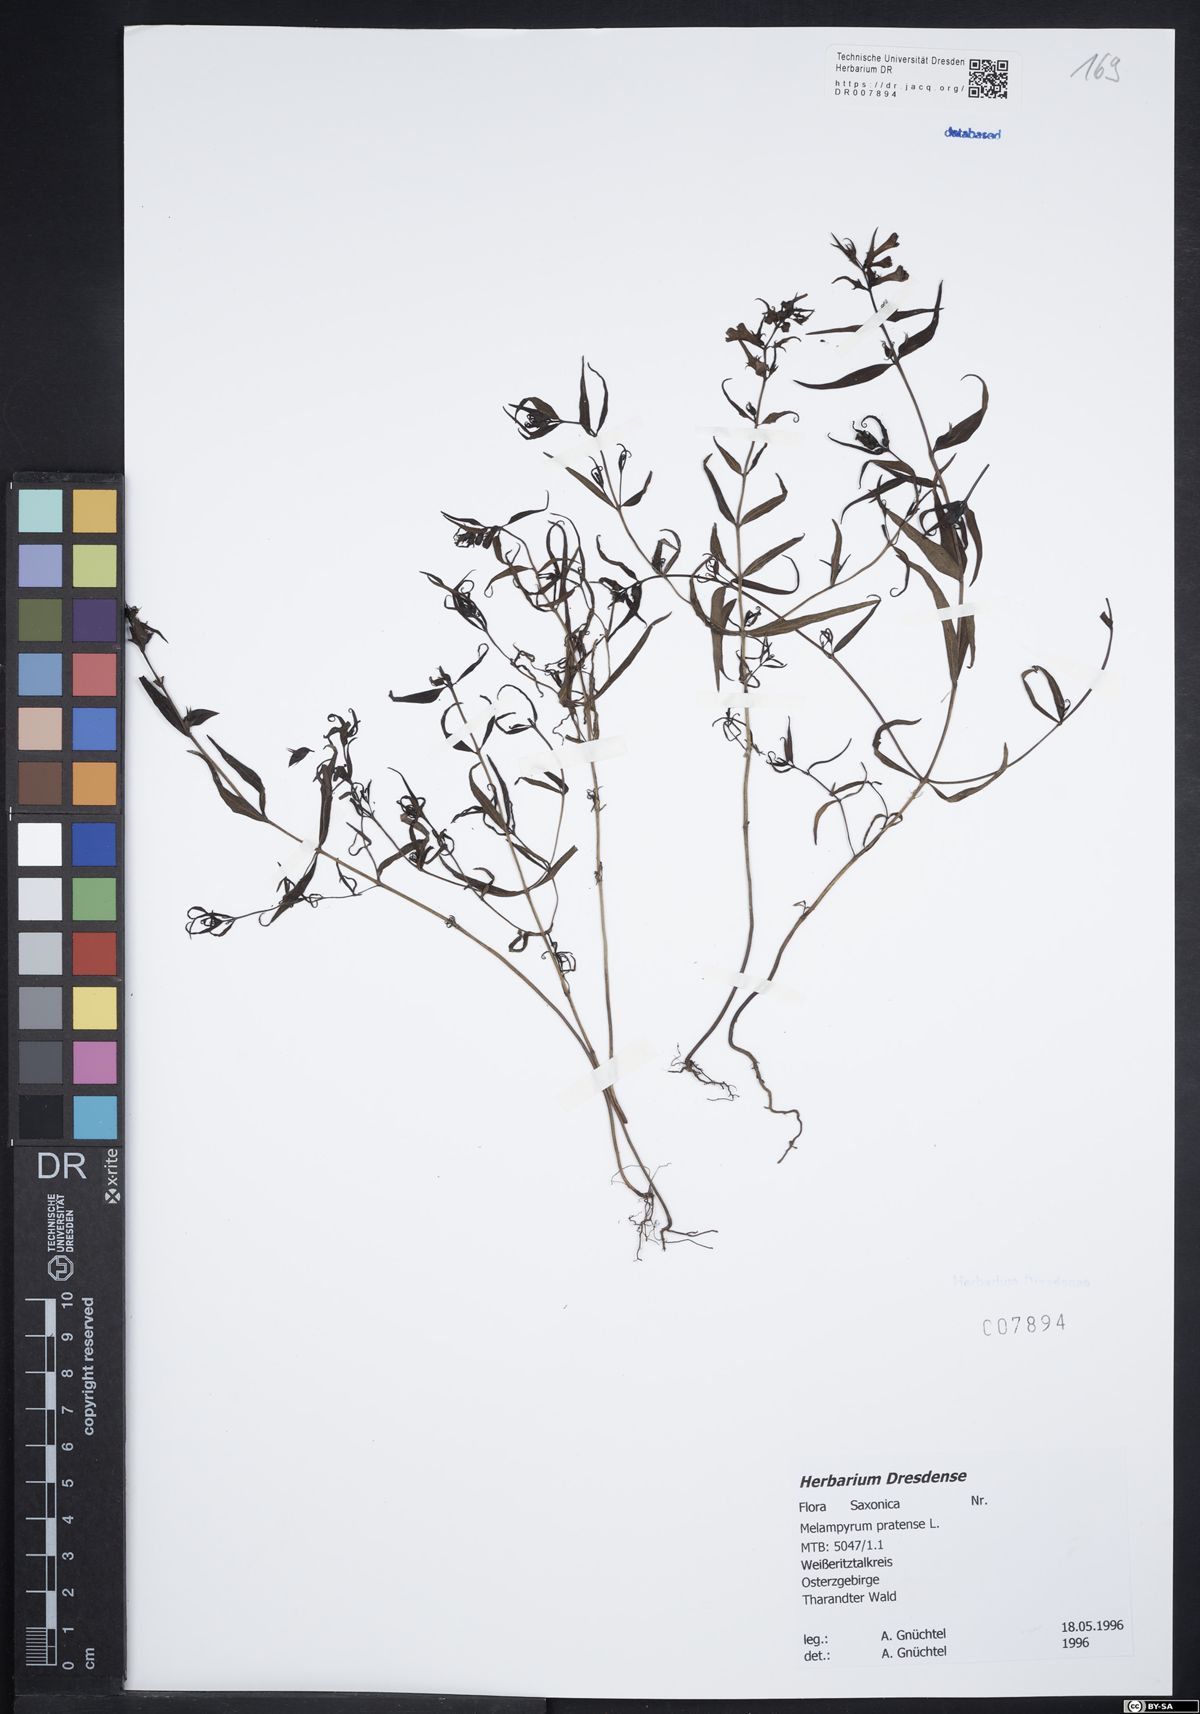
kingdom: Plantae
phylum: Tracheophyta
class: Magnoliopsida
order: Lamiales
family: Orobanchaceae
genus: Melampyrum
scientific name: Melampyrum pratense
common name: Common cow-wheat
